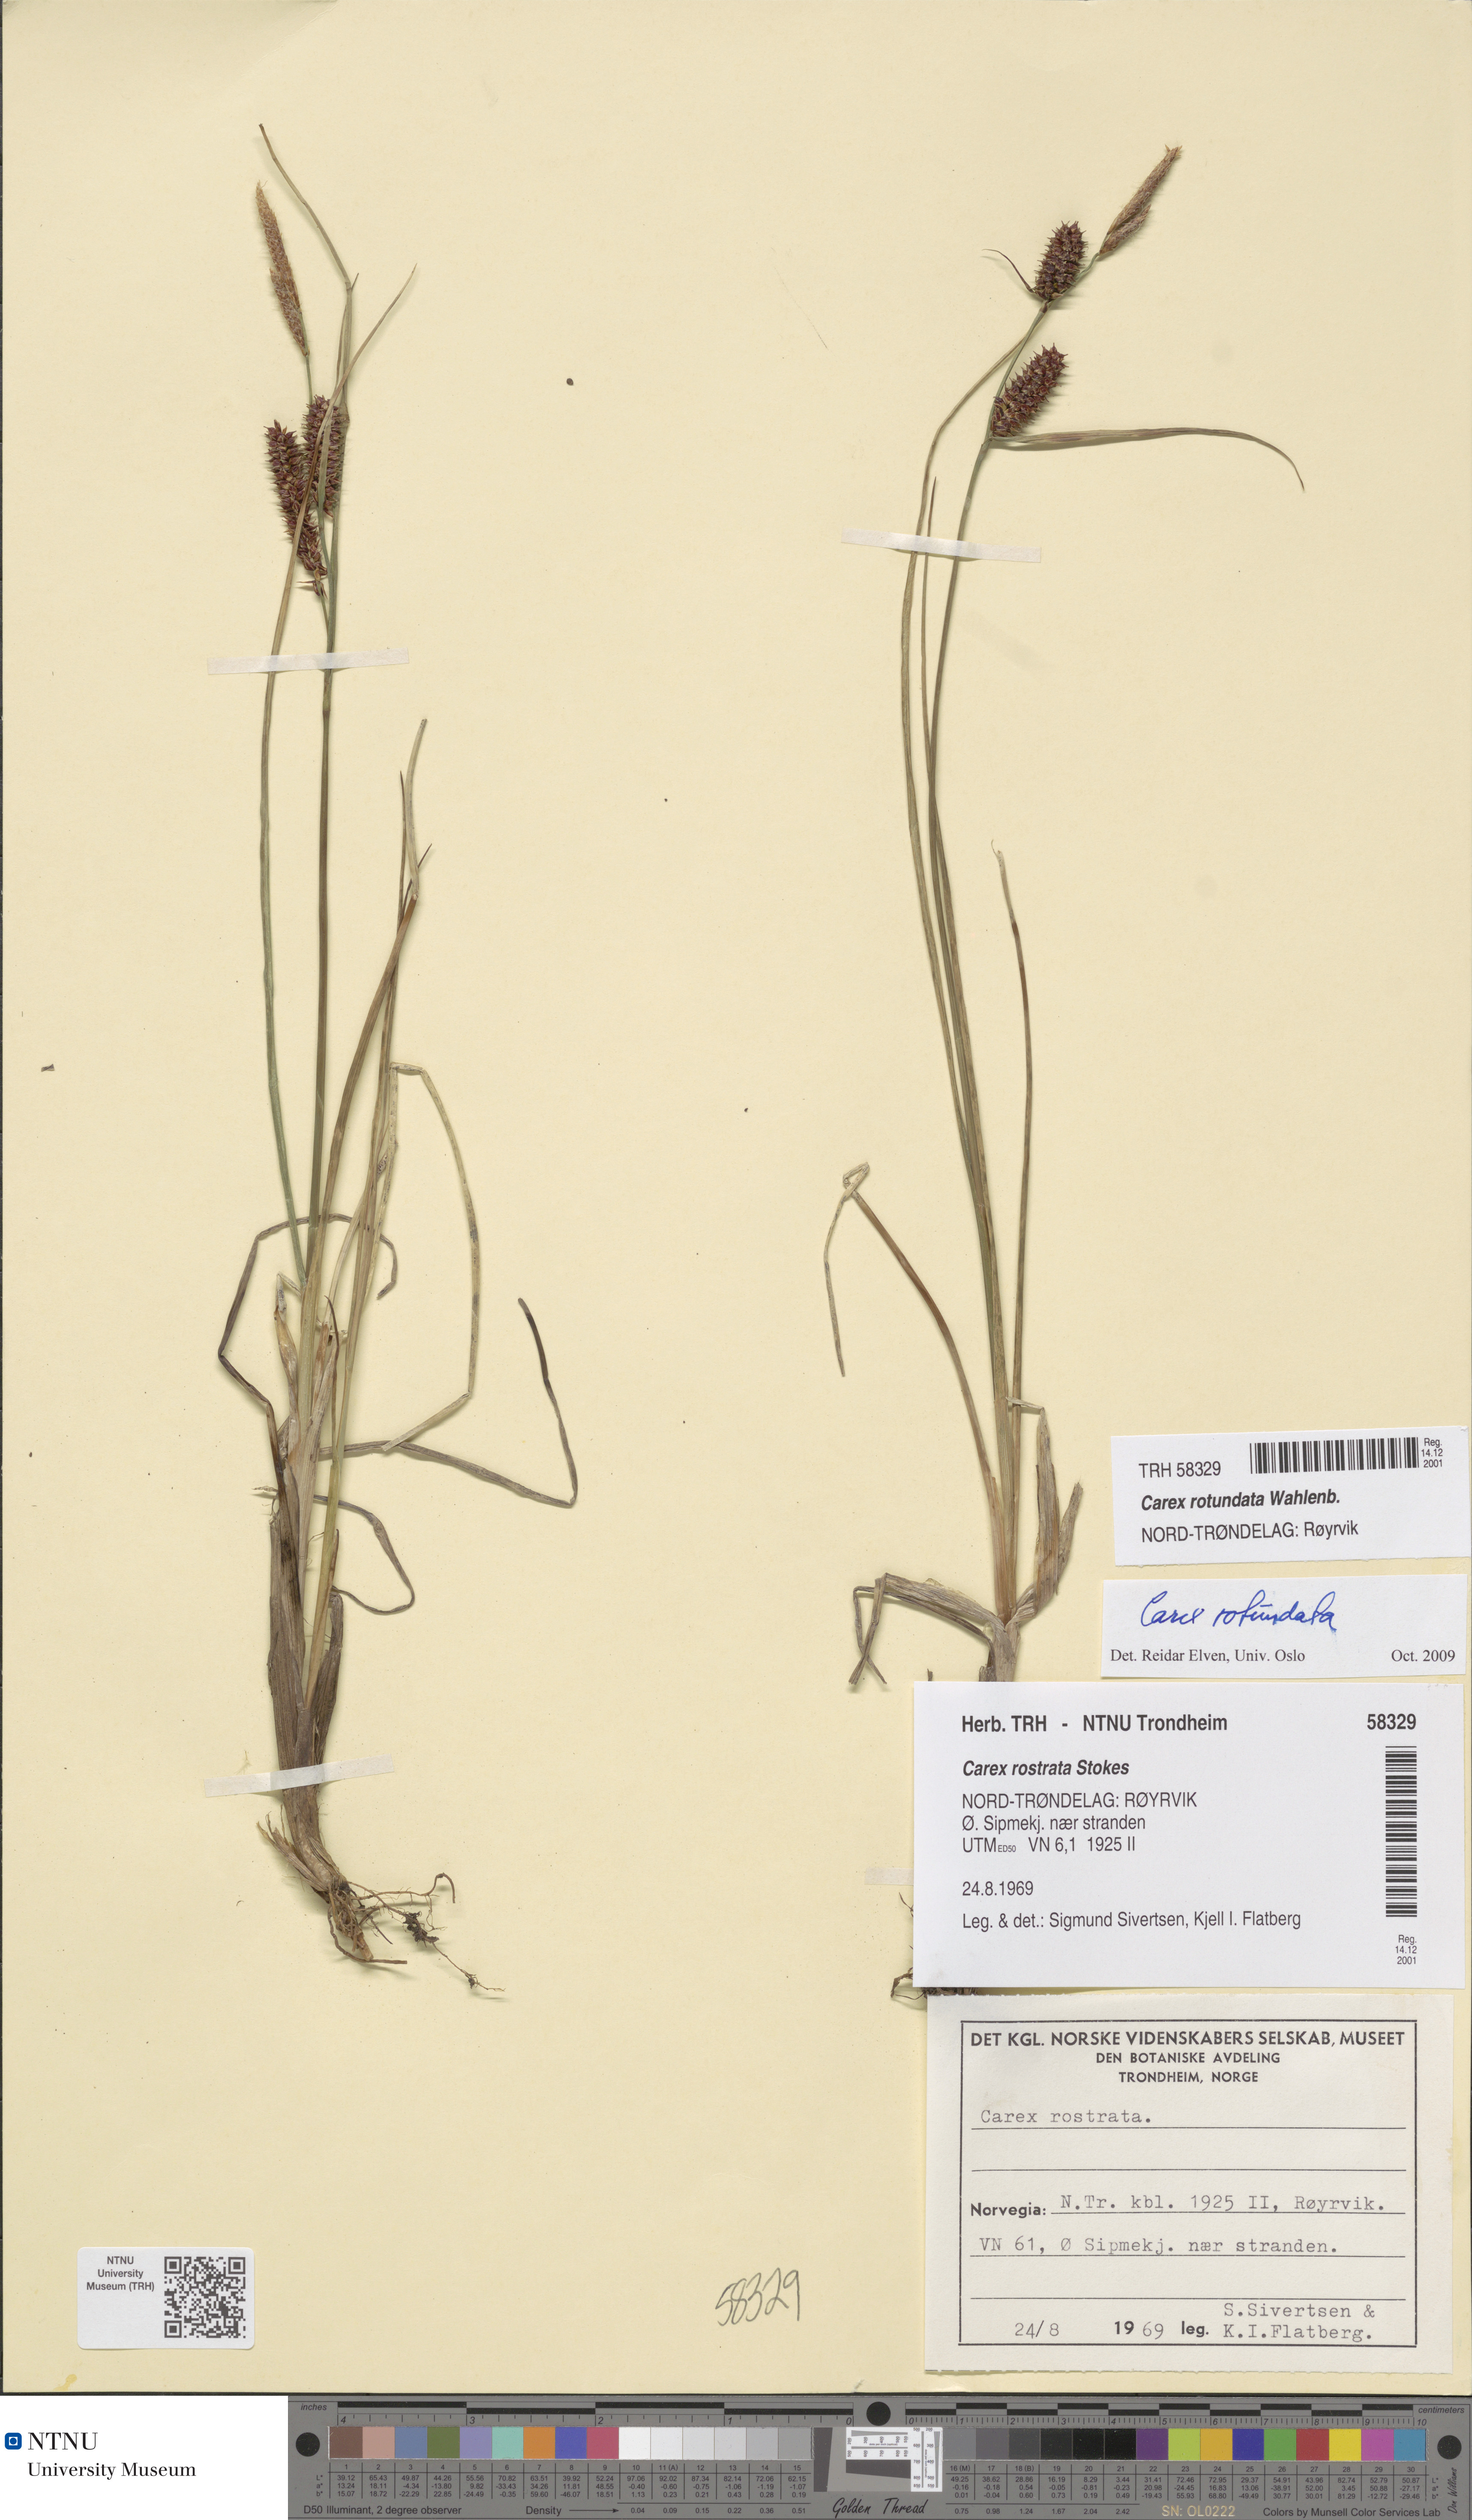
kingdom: Plantae
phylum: Tracheophyta
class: Liliopsida
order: Poales
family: Cyperaceae
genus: Carex
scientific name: Carex rotundata
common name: Round-fruited sedge
